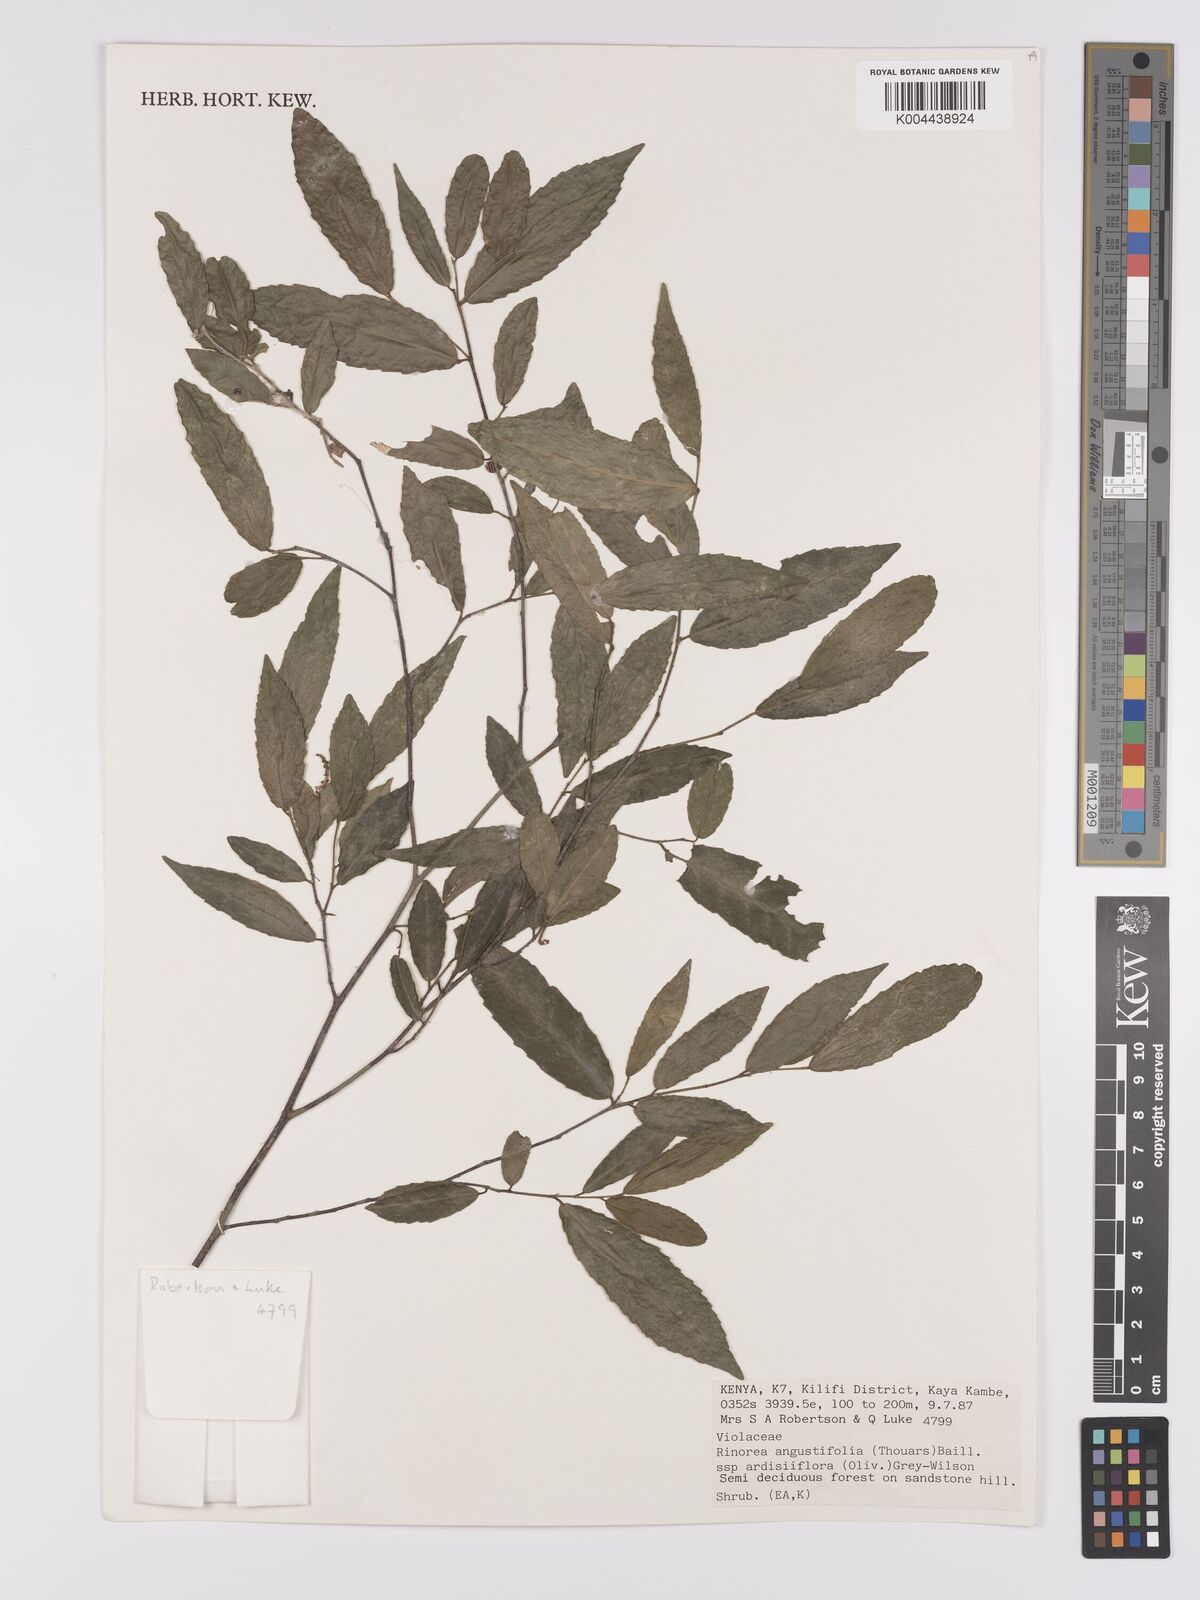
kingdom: Plantae
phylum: Tracheophyta
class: Magnoliopsida
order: Malpighiales
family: Violaceae
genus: Rinorea
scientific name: Rinorea angustifolia
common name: White violet-bush
